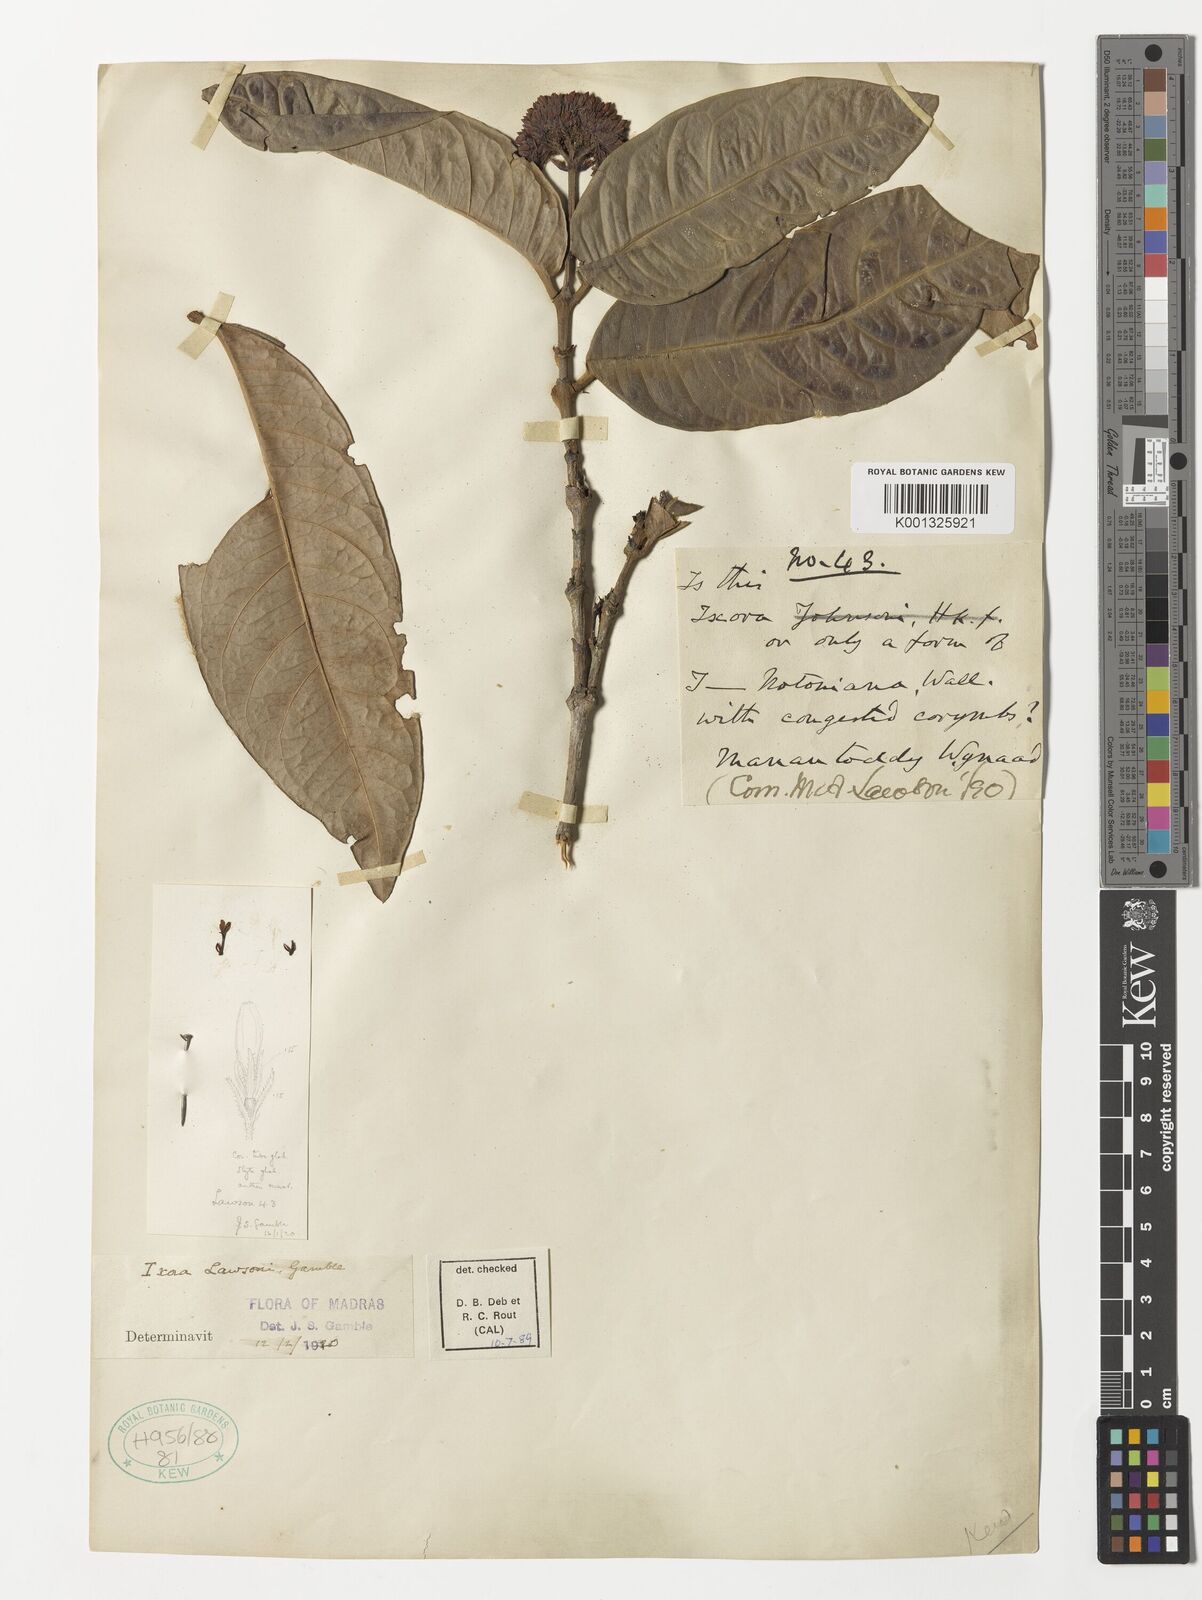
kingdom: Plantae
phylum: Tracheophyta
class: Magnoliopsida
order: Gentianales
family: Rubiaceae
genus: Ixora
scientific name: Ixora lawsonii
